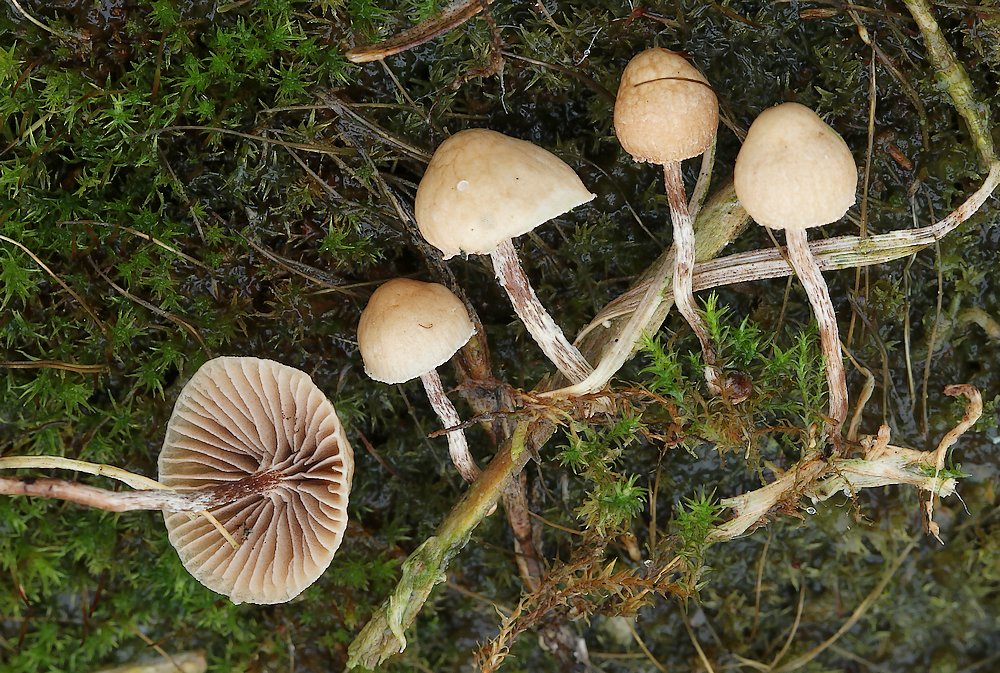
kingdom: Fungi
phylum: Basidiomycota
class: Agaricomycetes
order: Agaricales
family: Strophariaceae
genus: Deconica
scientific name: Deconica inquilina
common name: græs-stråhat
